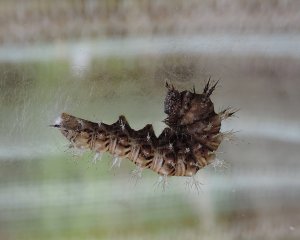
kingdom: Animalia
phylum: Arthropoda
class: Insecta
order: Lepidoptera
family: Nymphalidae
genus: Polygonia
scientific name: Polygonia progne
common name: Gray Comma
